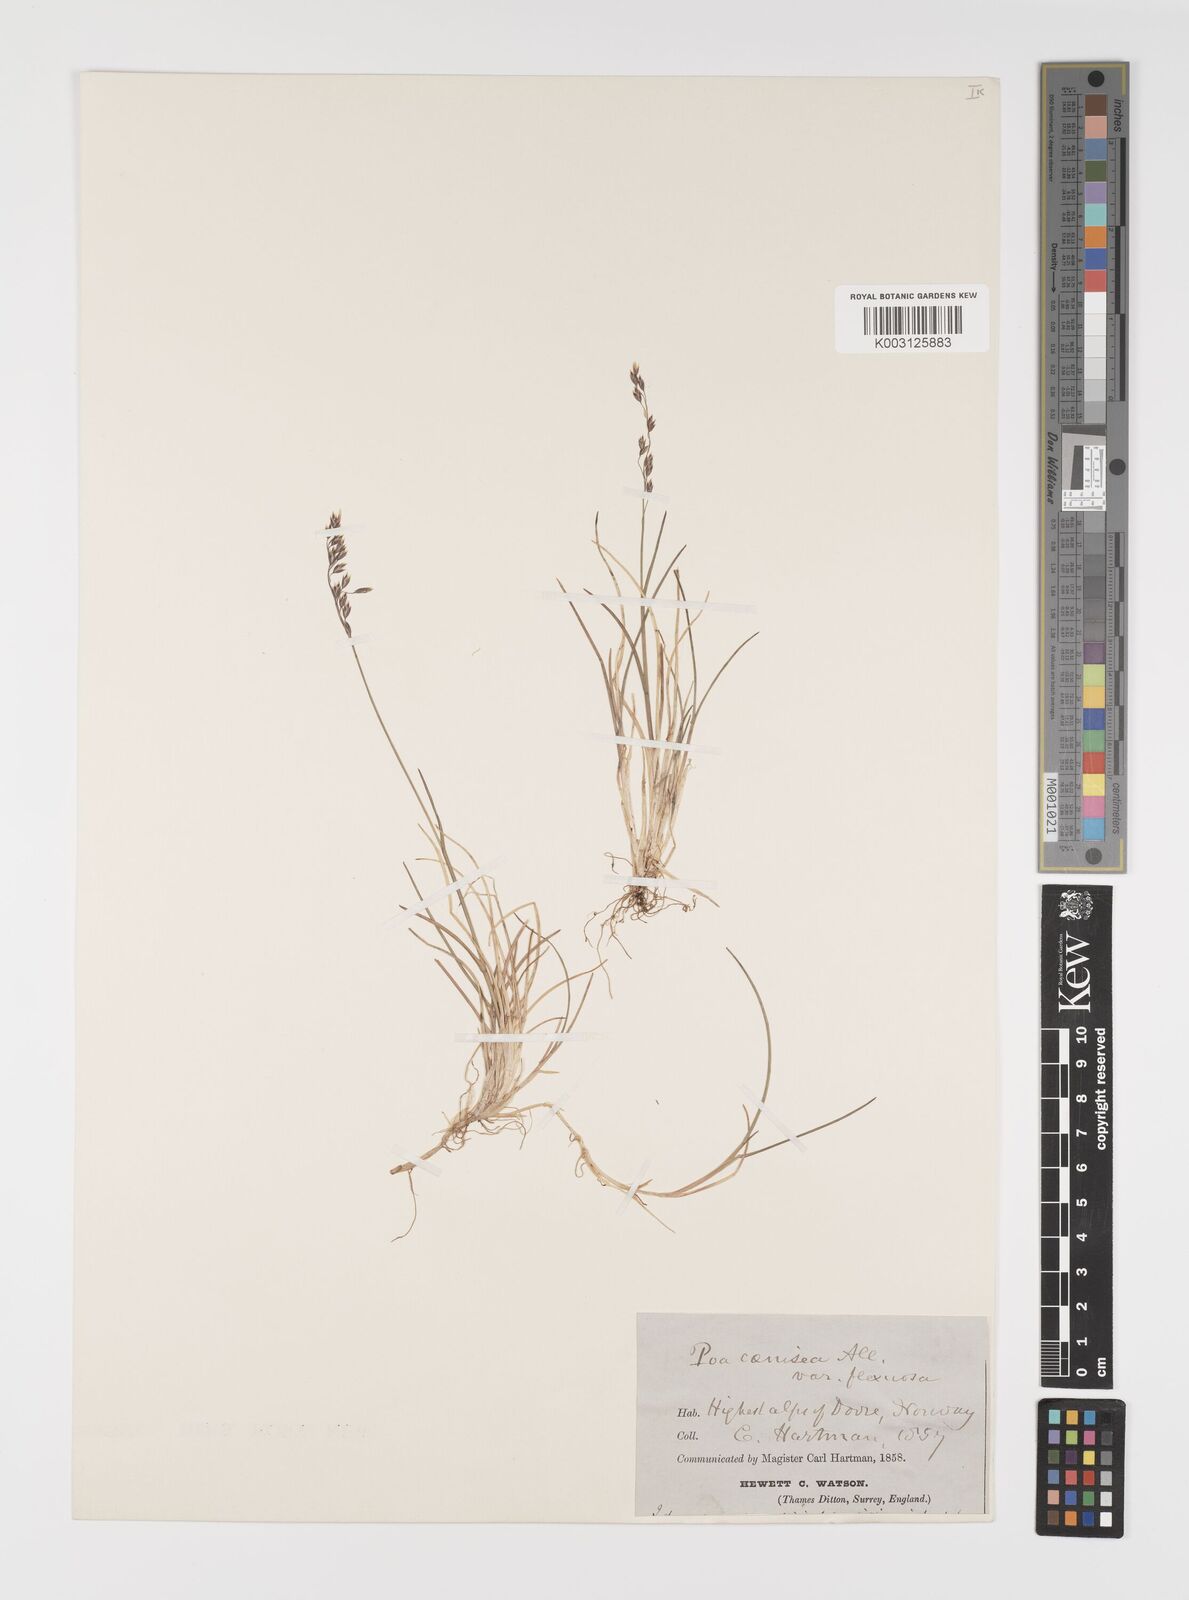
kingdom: Plantae
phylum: Tracheophyta
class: Liliopsida
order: Poales
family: Poaceae
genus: Eragrostis
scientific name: Eragrostis cilianensis
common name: Stinkgrass
